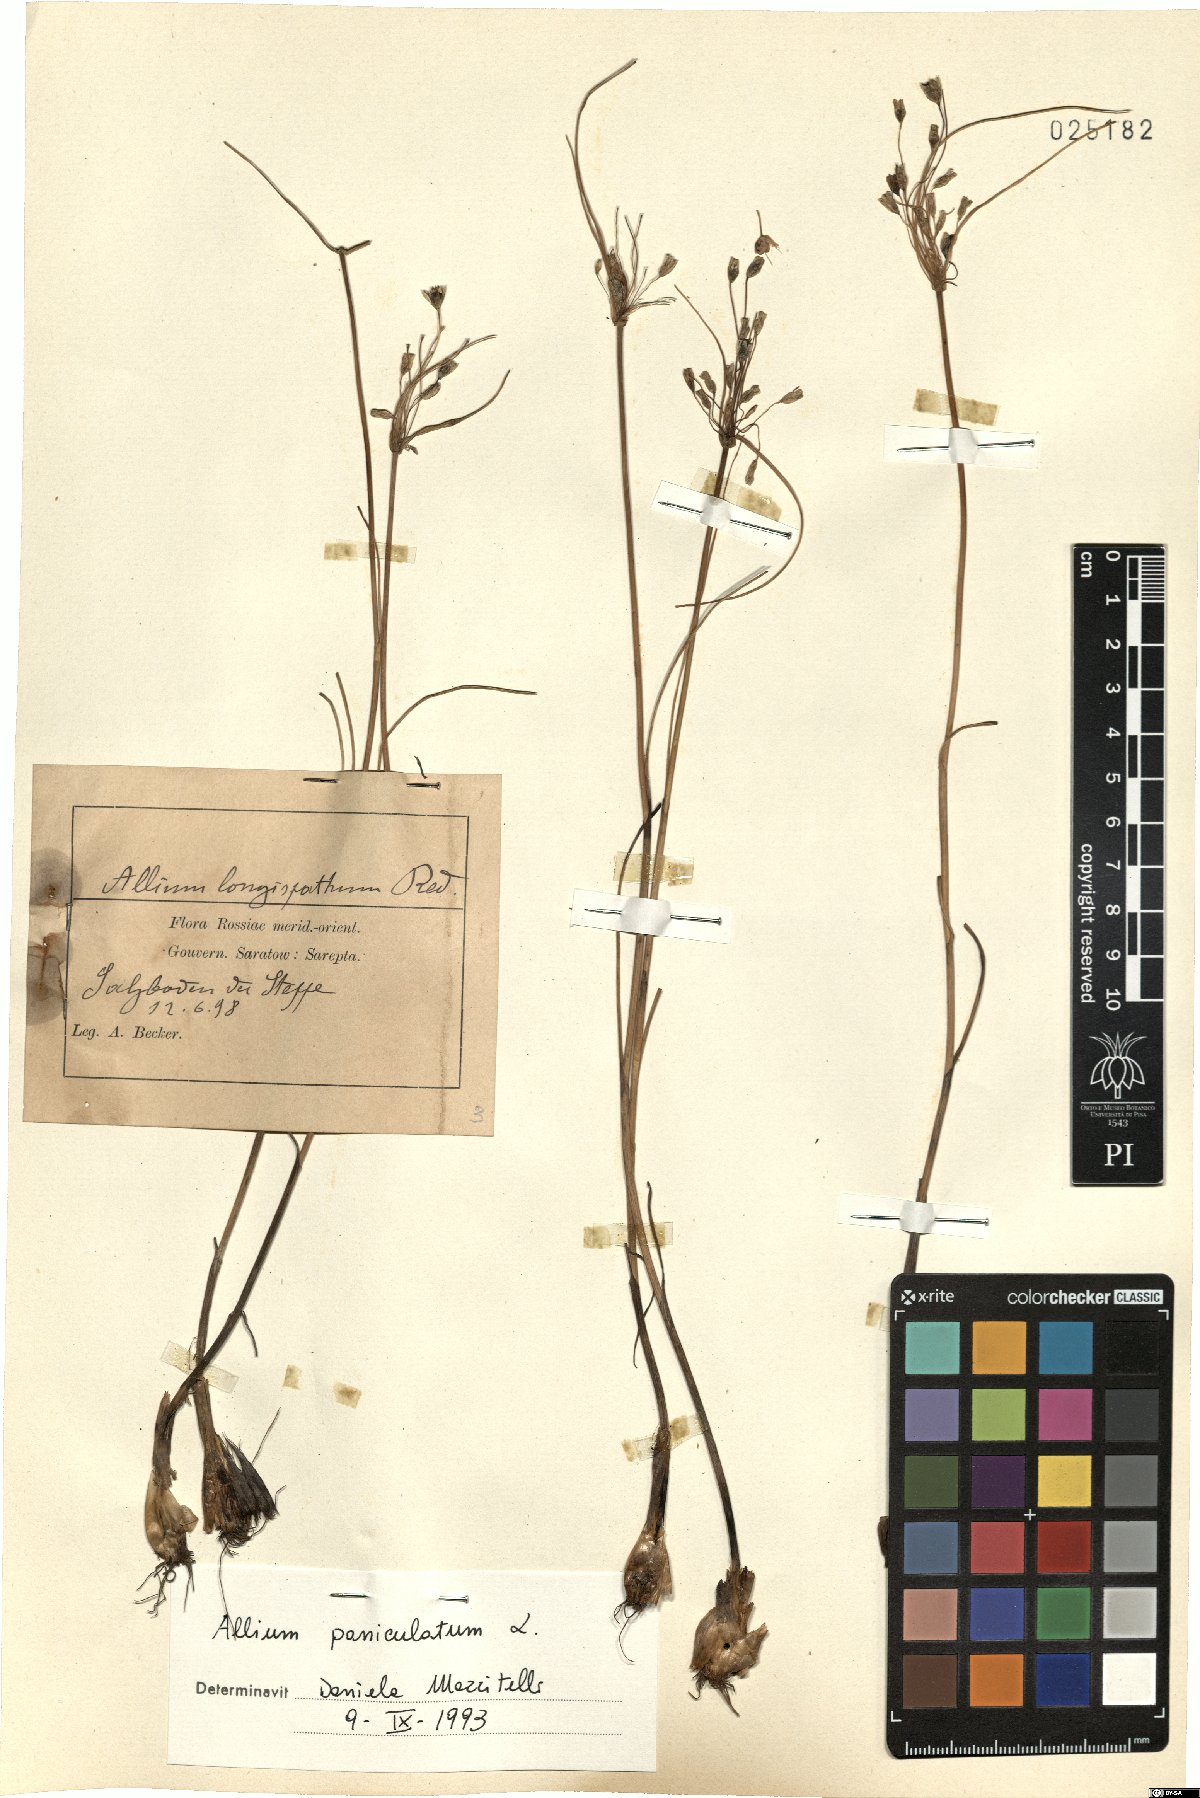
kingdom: Plantae
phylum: Tracheophyta
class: Liliopsida
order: Asparagales
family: Amaryllidaceae
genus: Allium
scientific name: Allium paniculatum
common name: Pale garlic
